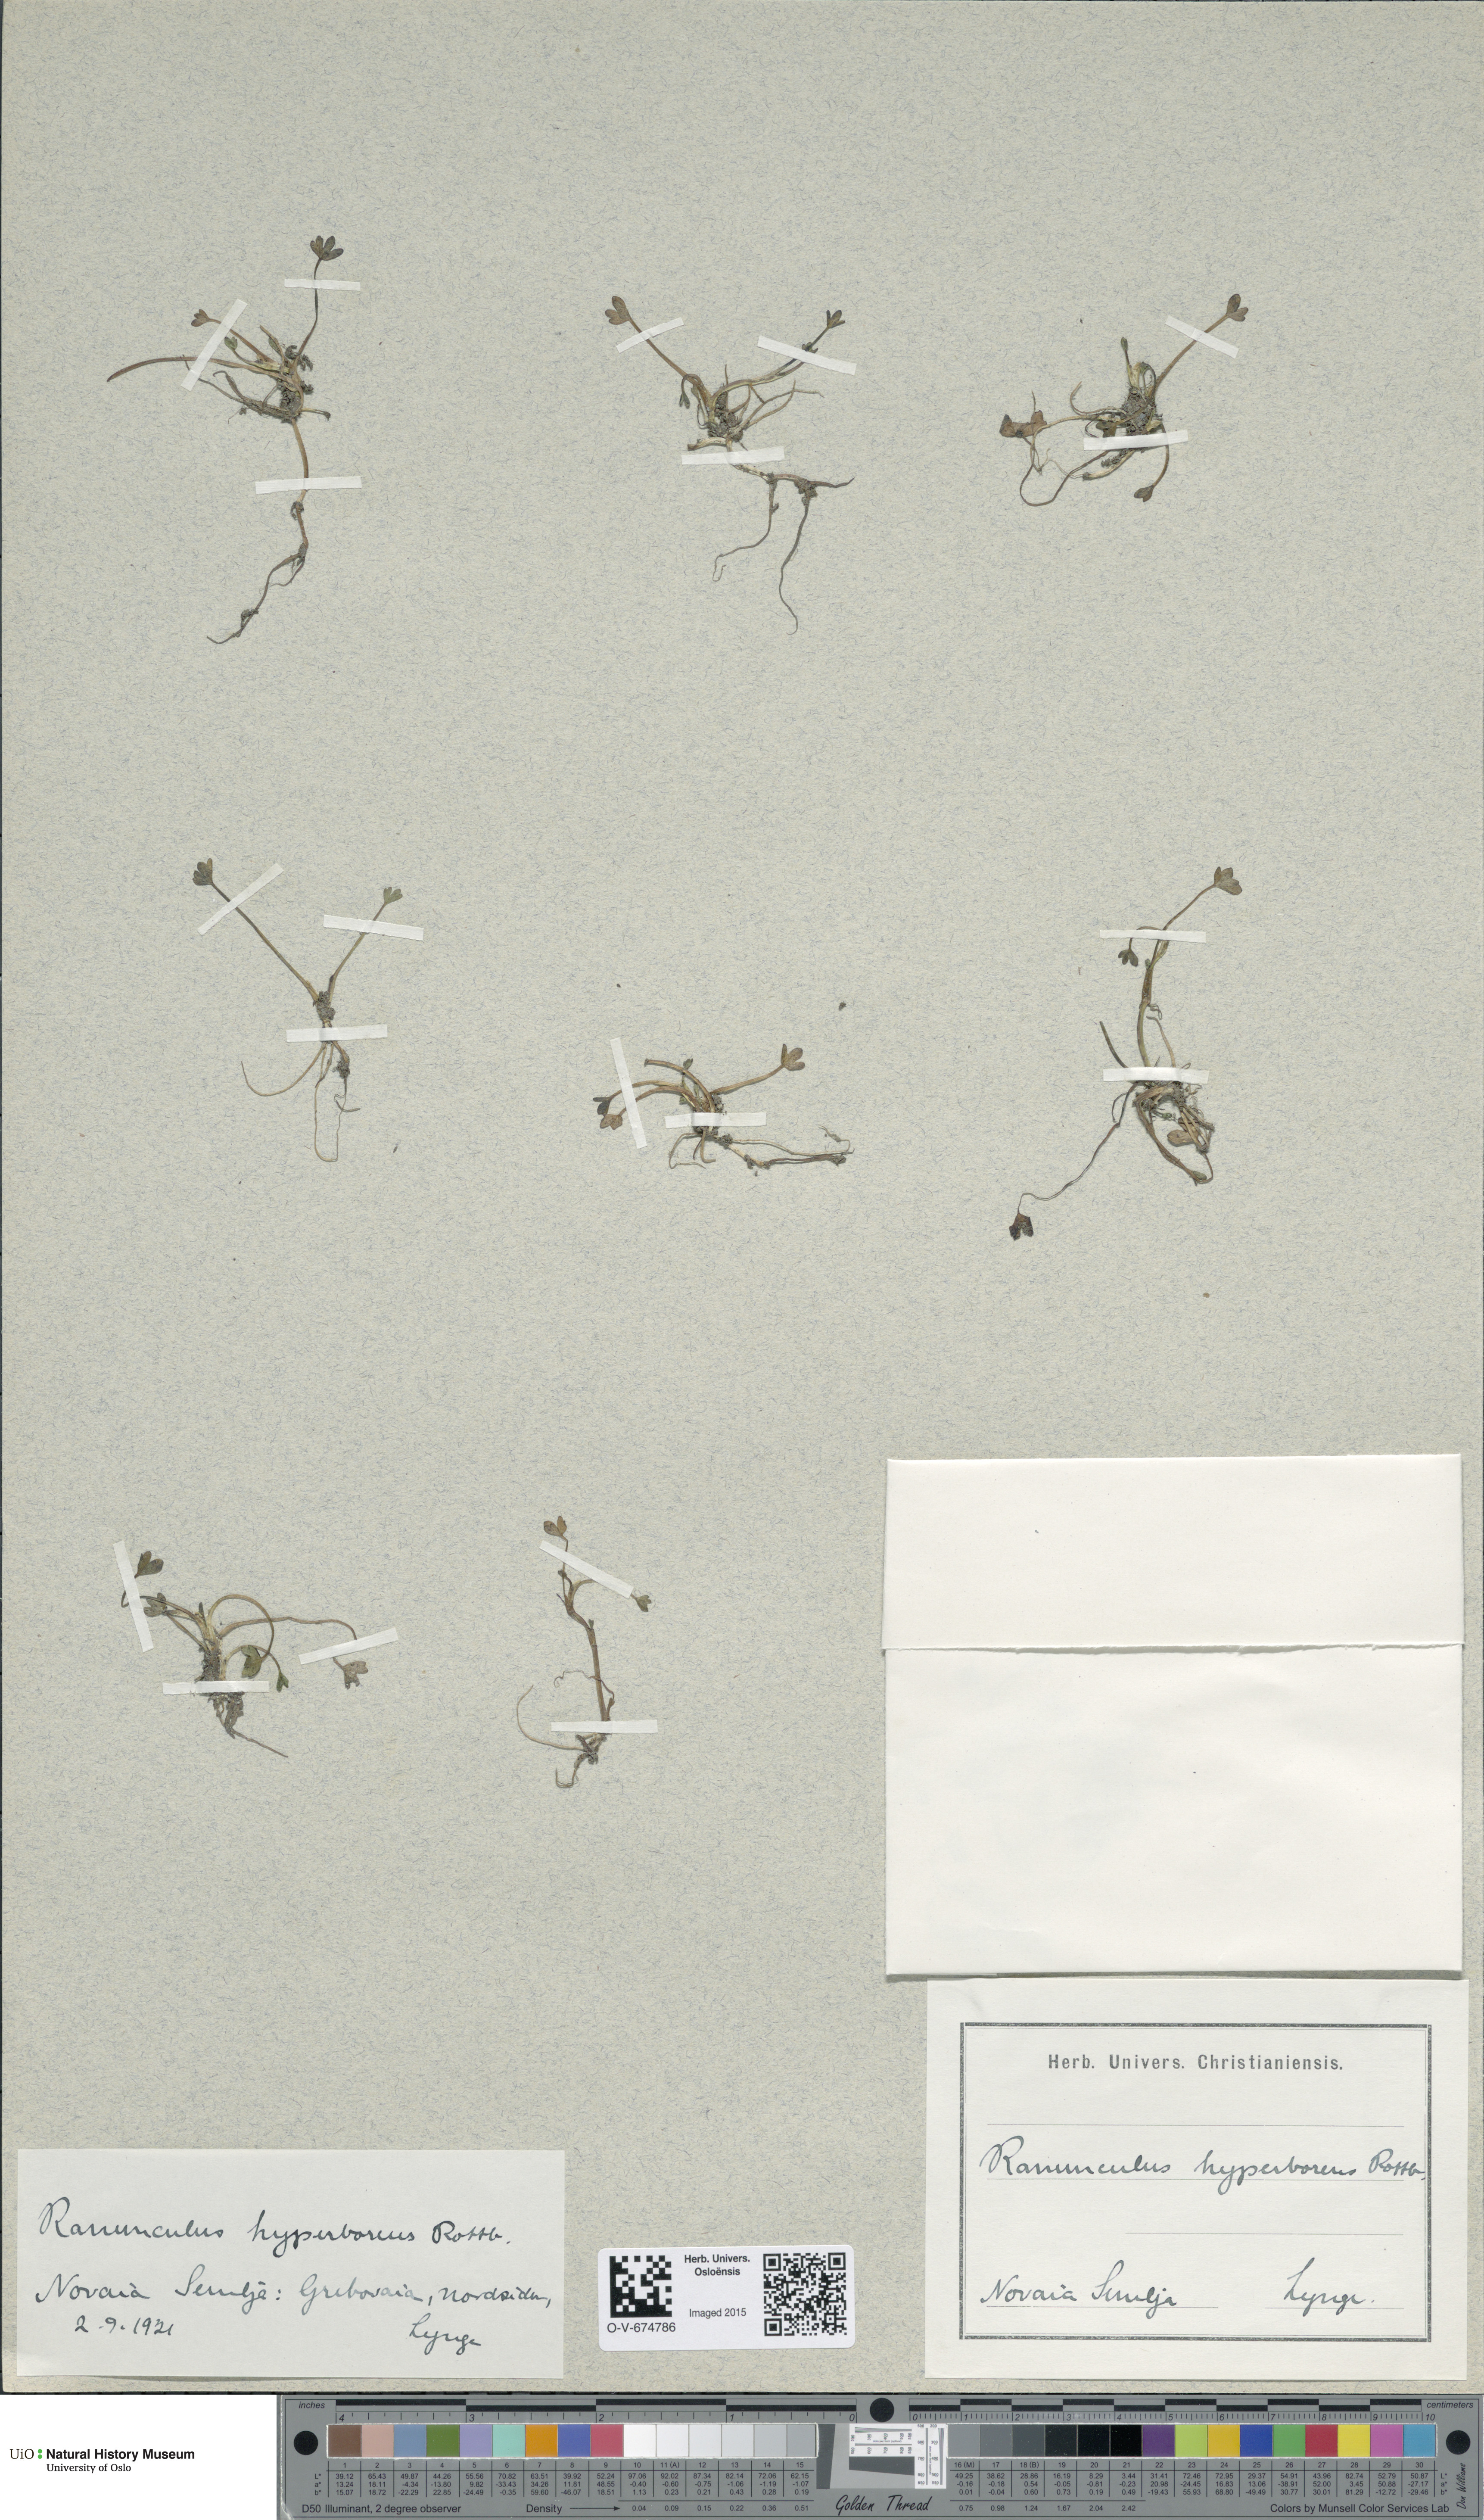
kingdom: Plantae
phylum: Tracheophyta
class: Magnoliopsida
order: Ranunculales
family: Ranunculaceae
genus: Ranunculus
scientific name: Ranunculus hyperboreus
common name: Arctic buttercup
